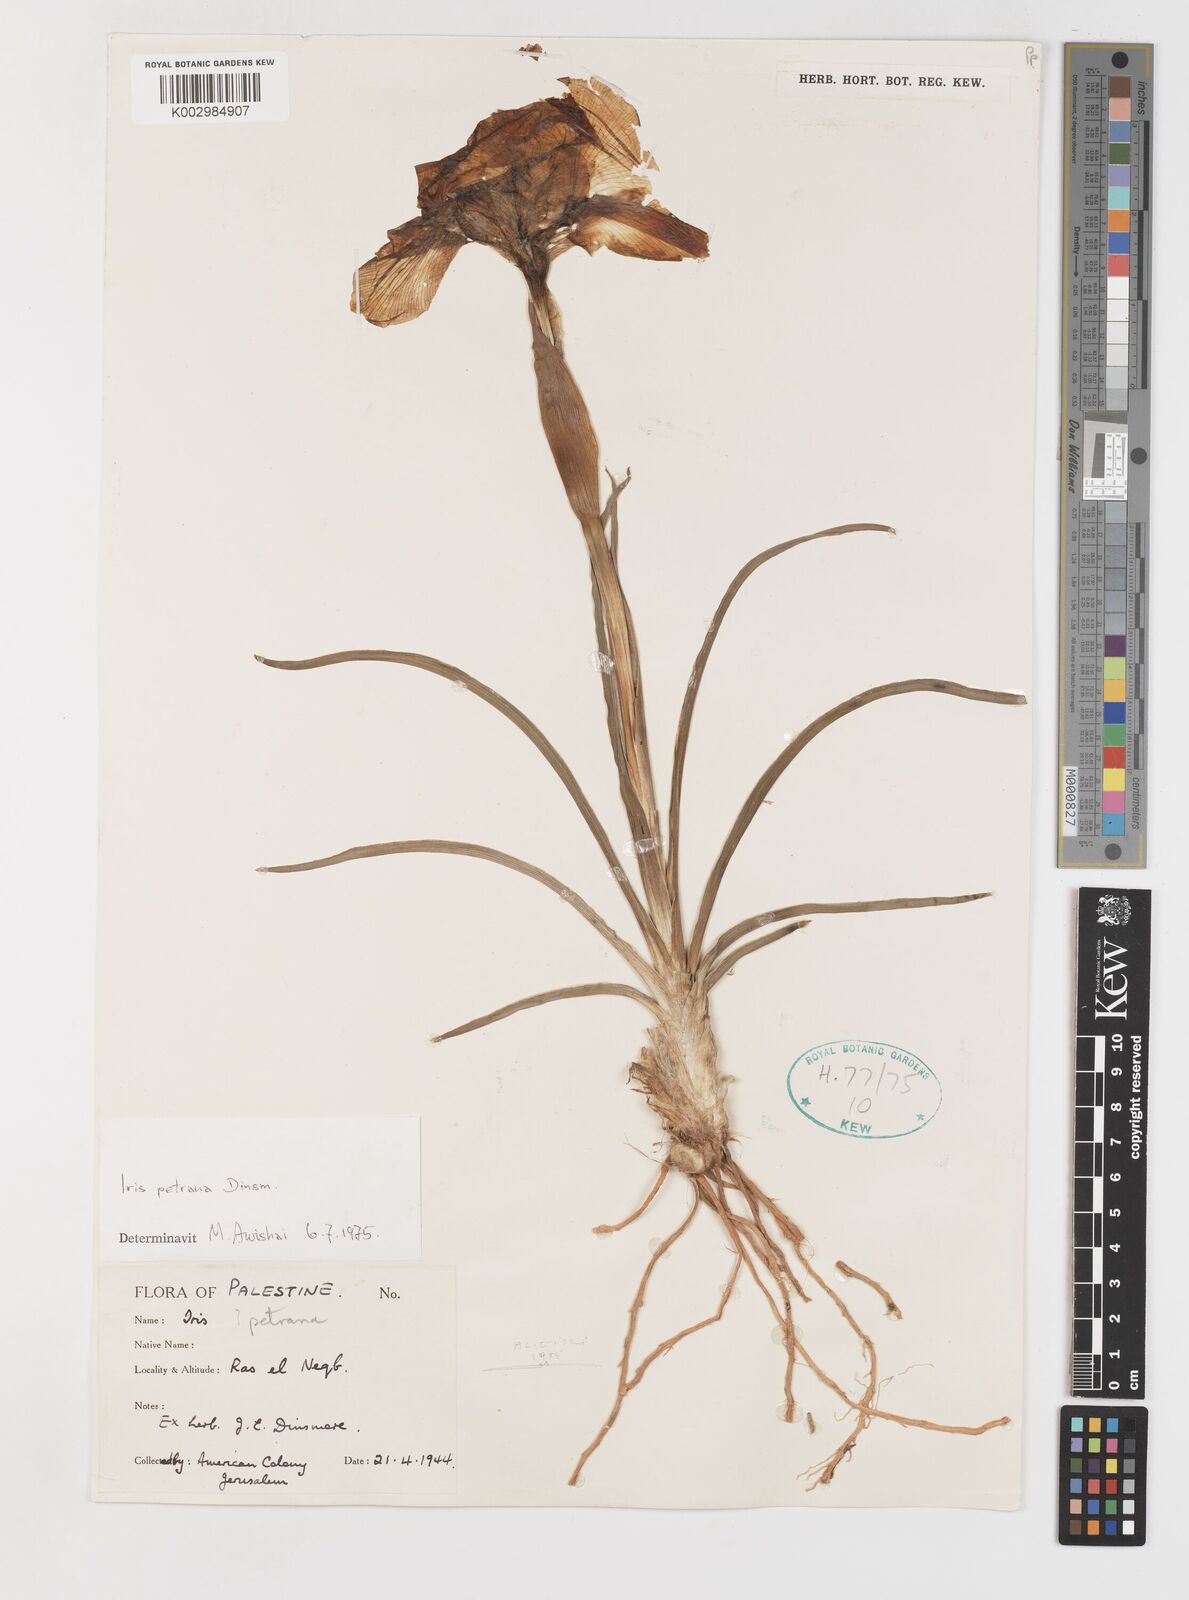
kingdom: Plantae
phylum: Tracheophyta
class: Liliopsida
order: Asparagales
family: Iridaceae
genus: Iris
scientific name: Iris petrana
